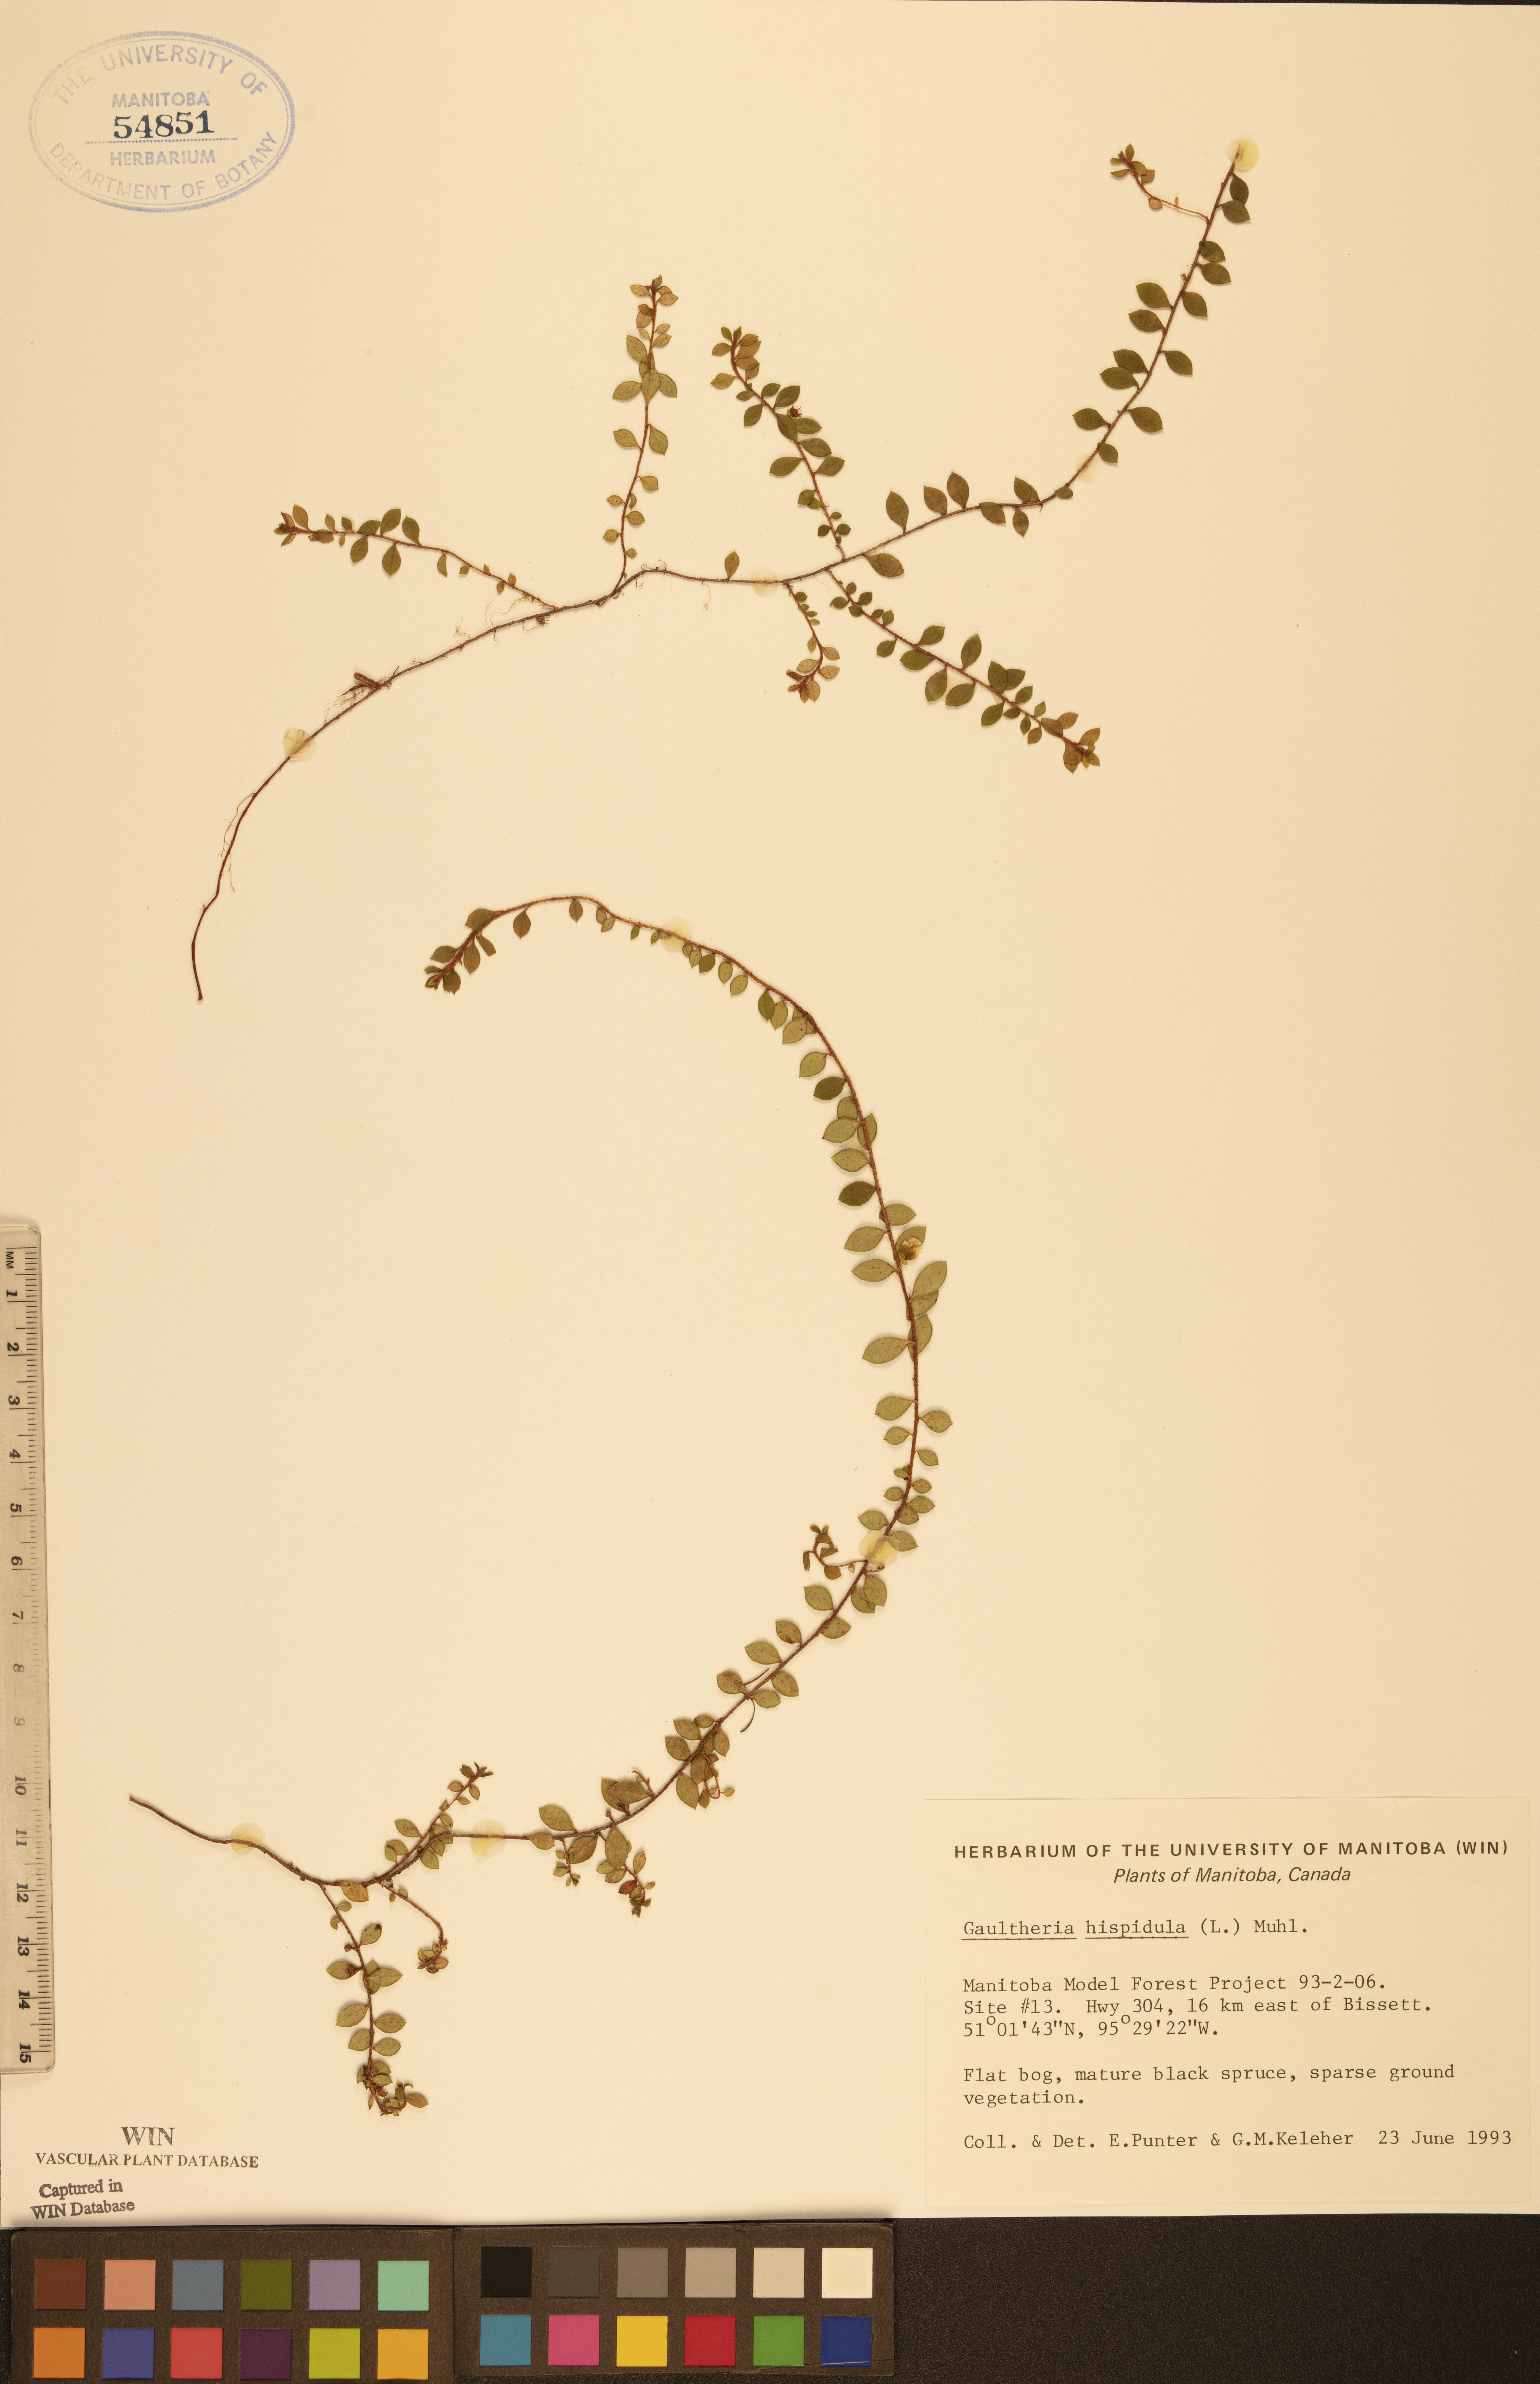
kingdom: Plantae
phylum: Tracheophyta
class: Magnoliopsida
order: Ericales
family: Ericaceae
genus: Gaultheria
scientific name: Gaultheria hispidula
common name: Cancer wintergreen
